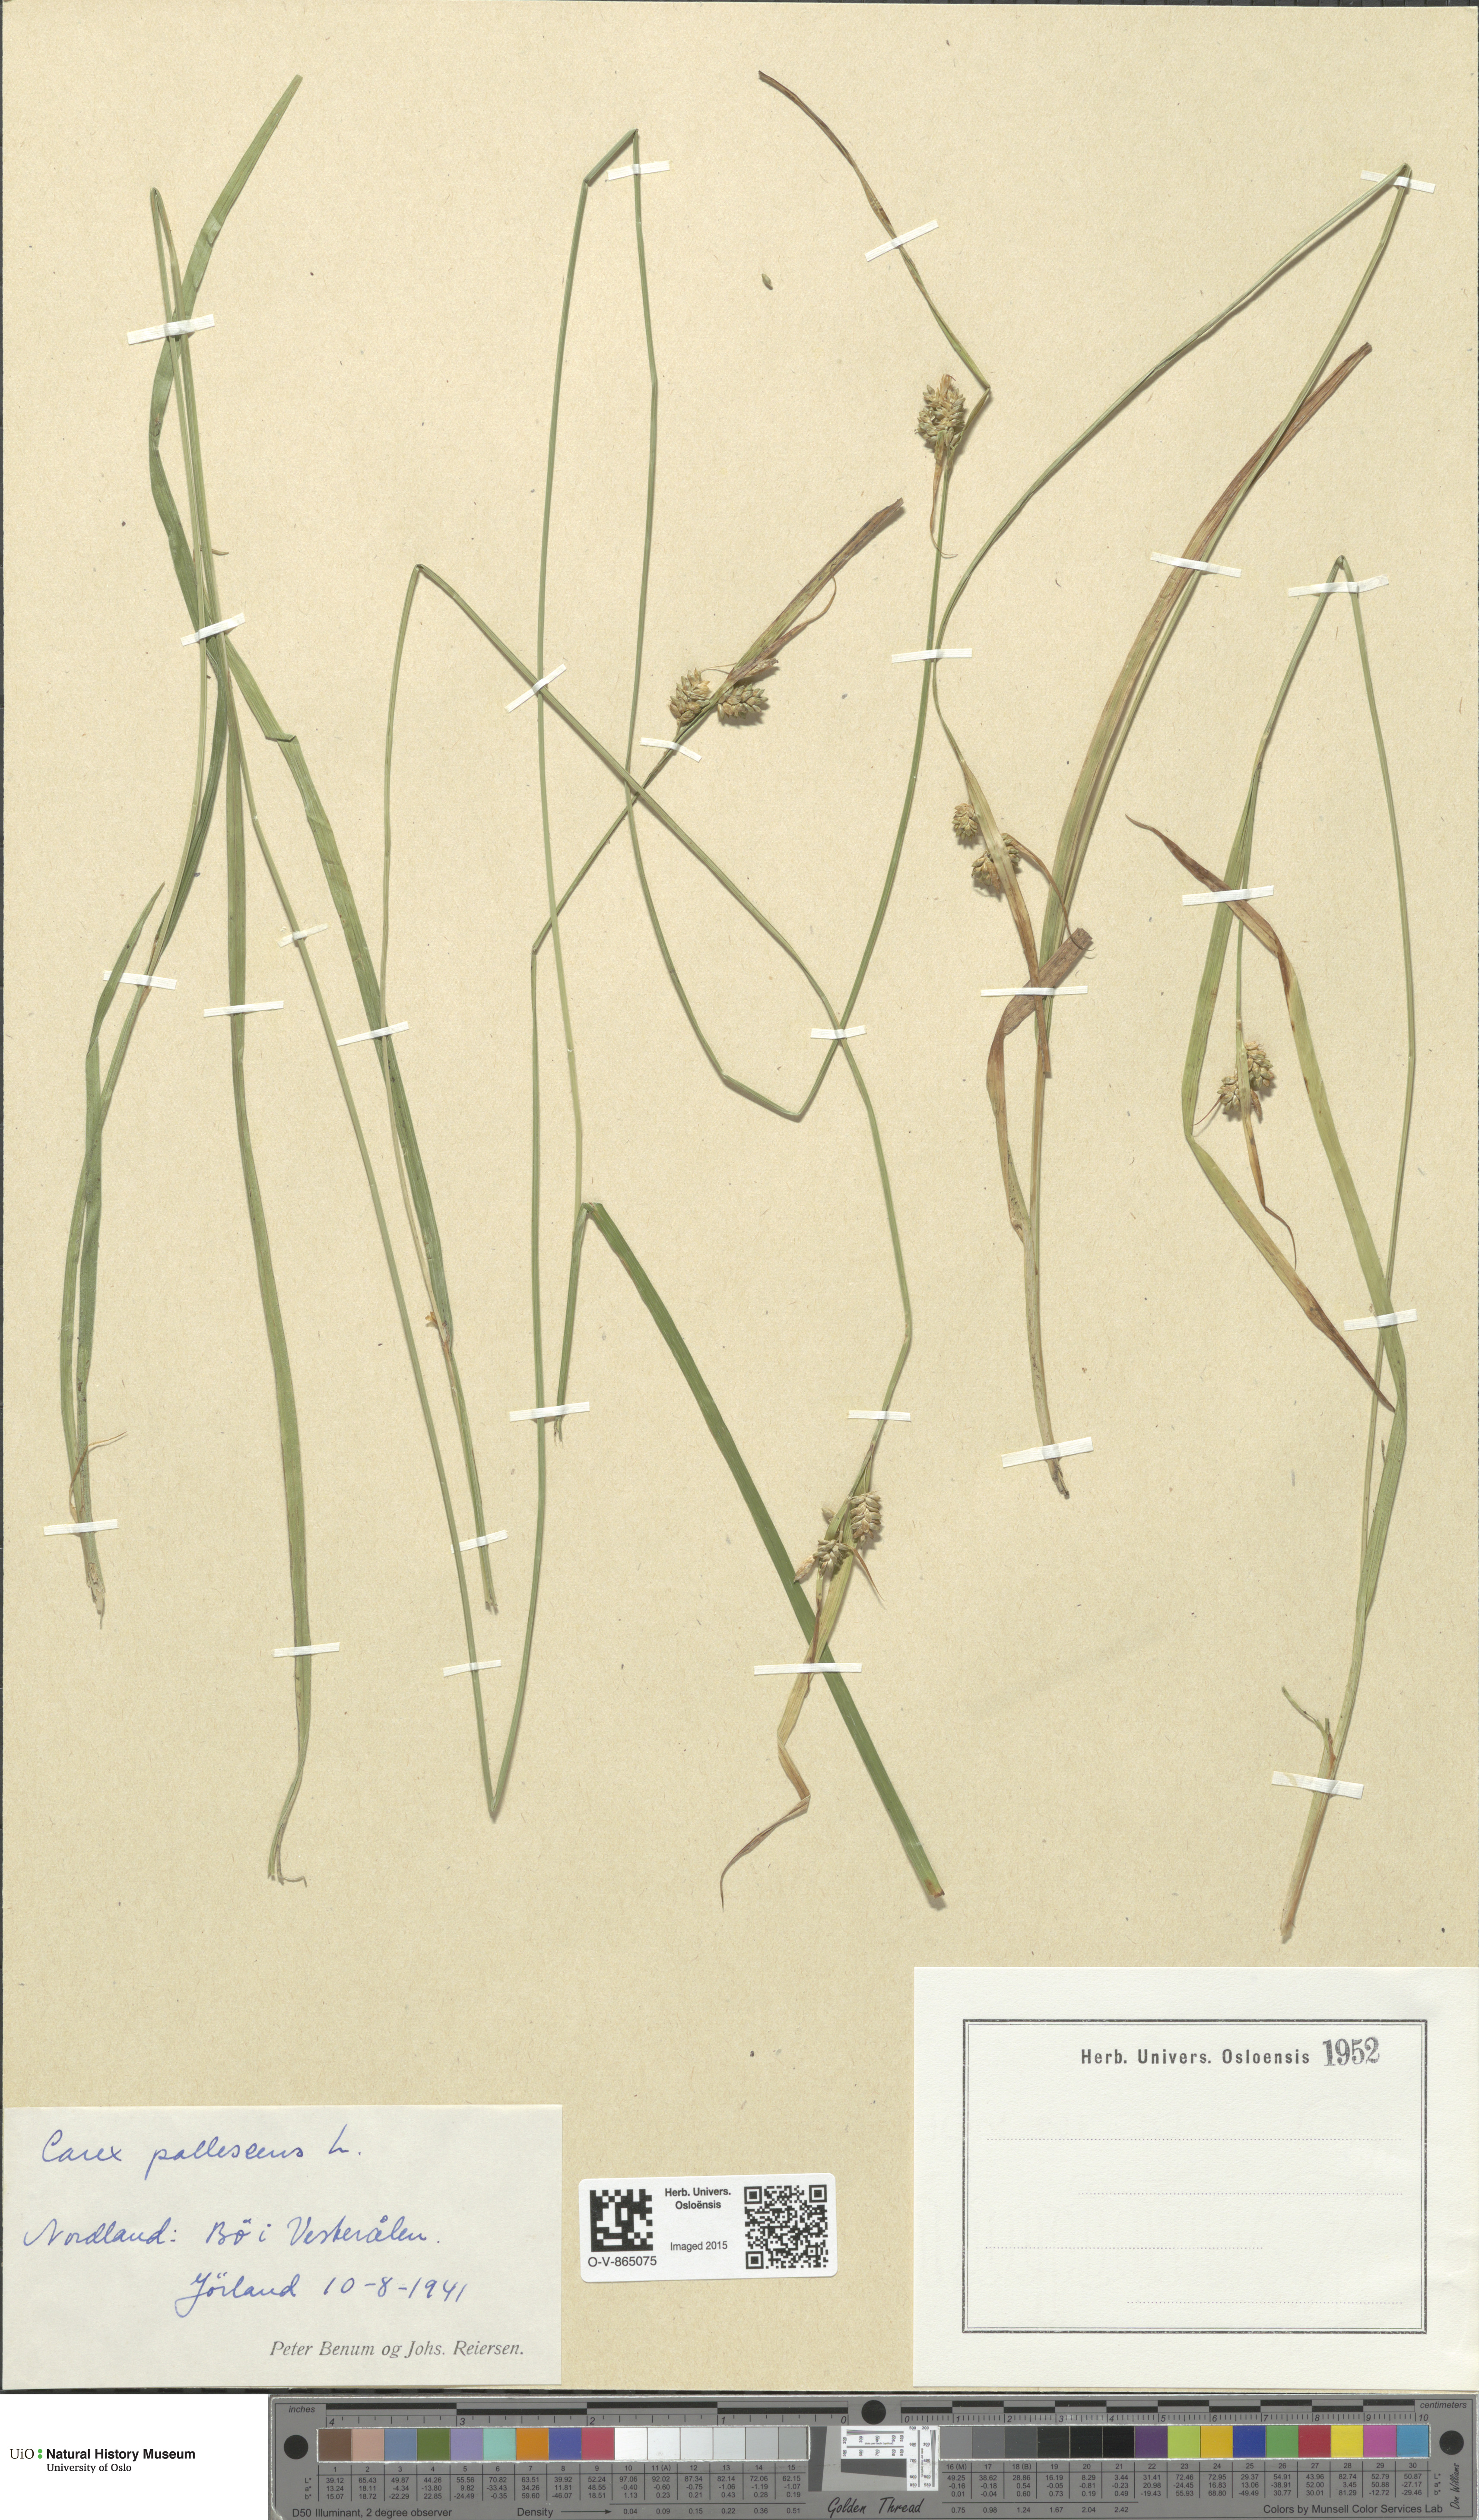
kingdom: Plantae
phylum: Tracheophyta
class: Liliopsida
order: Poales
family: Cyperaceae
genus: Carex
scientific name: Carex pallescens
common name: Pale sedge
